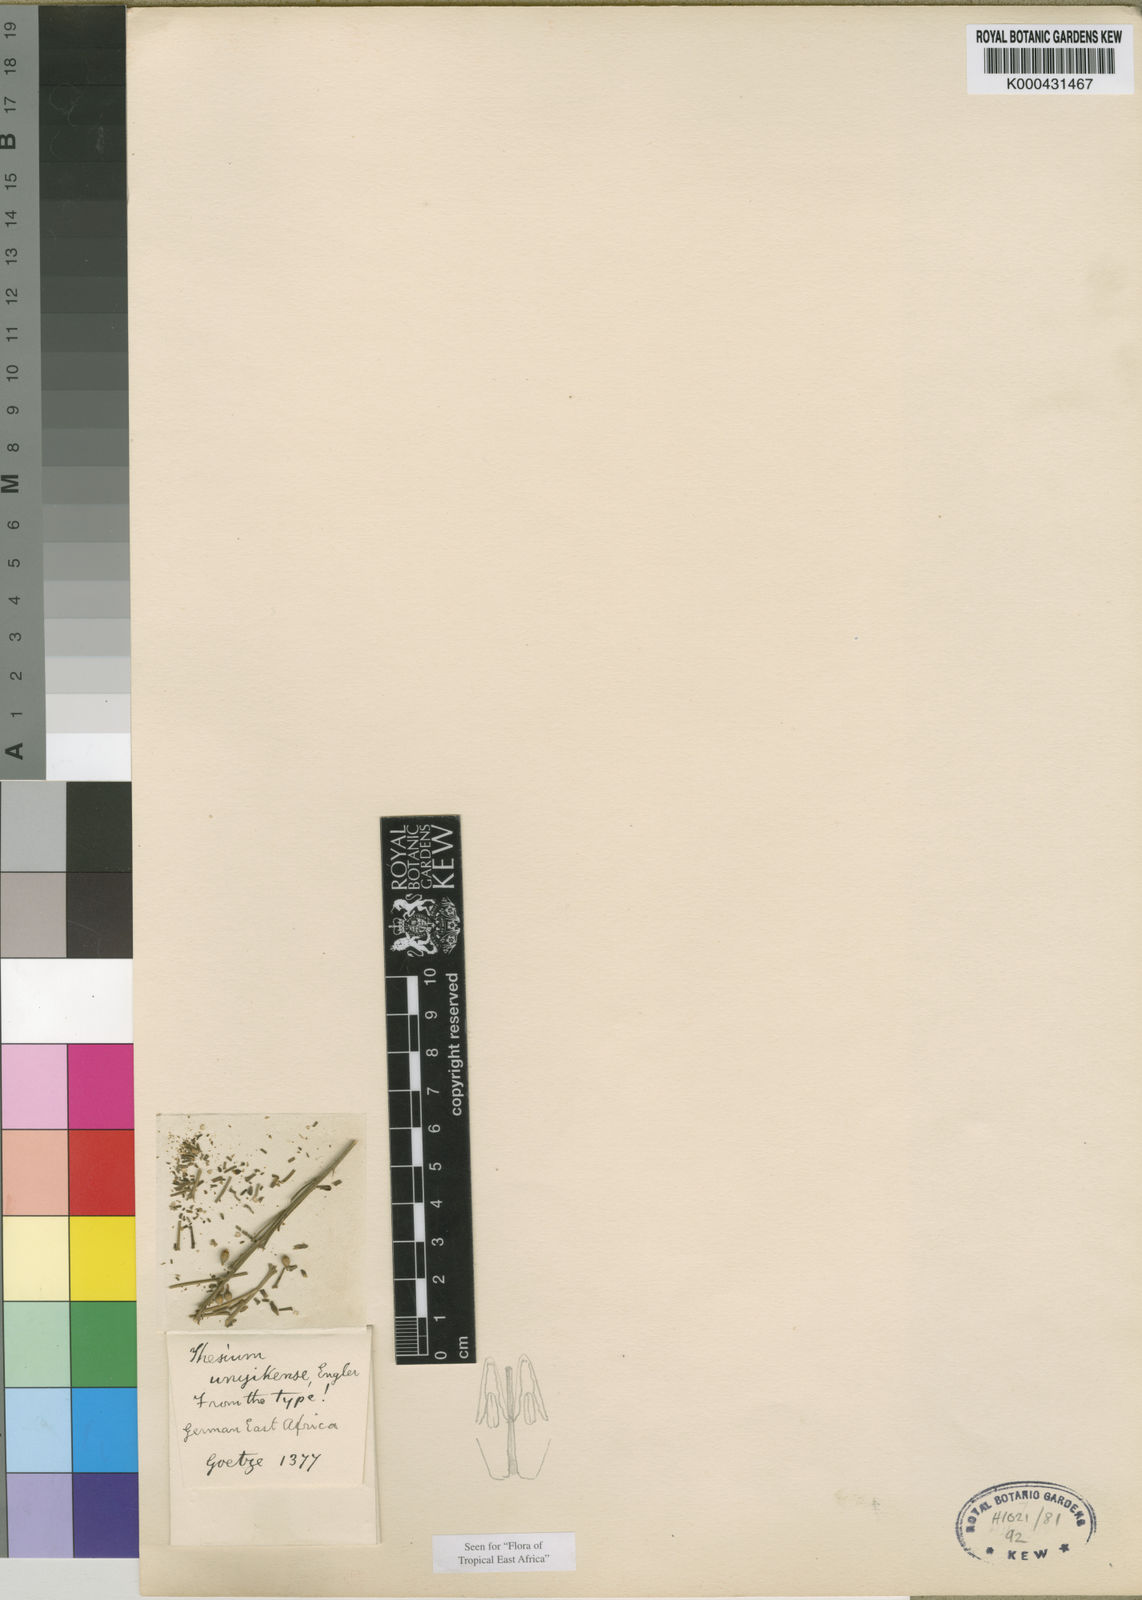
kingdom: Plantae
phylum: Tracheophyta
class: Magnoliopsida
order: Santalales
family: Thesiaceae
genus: Thesium
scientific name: Thesium unyikense
